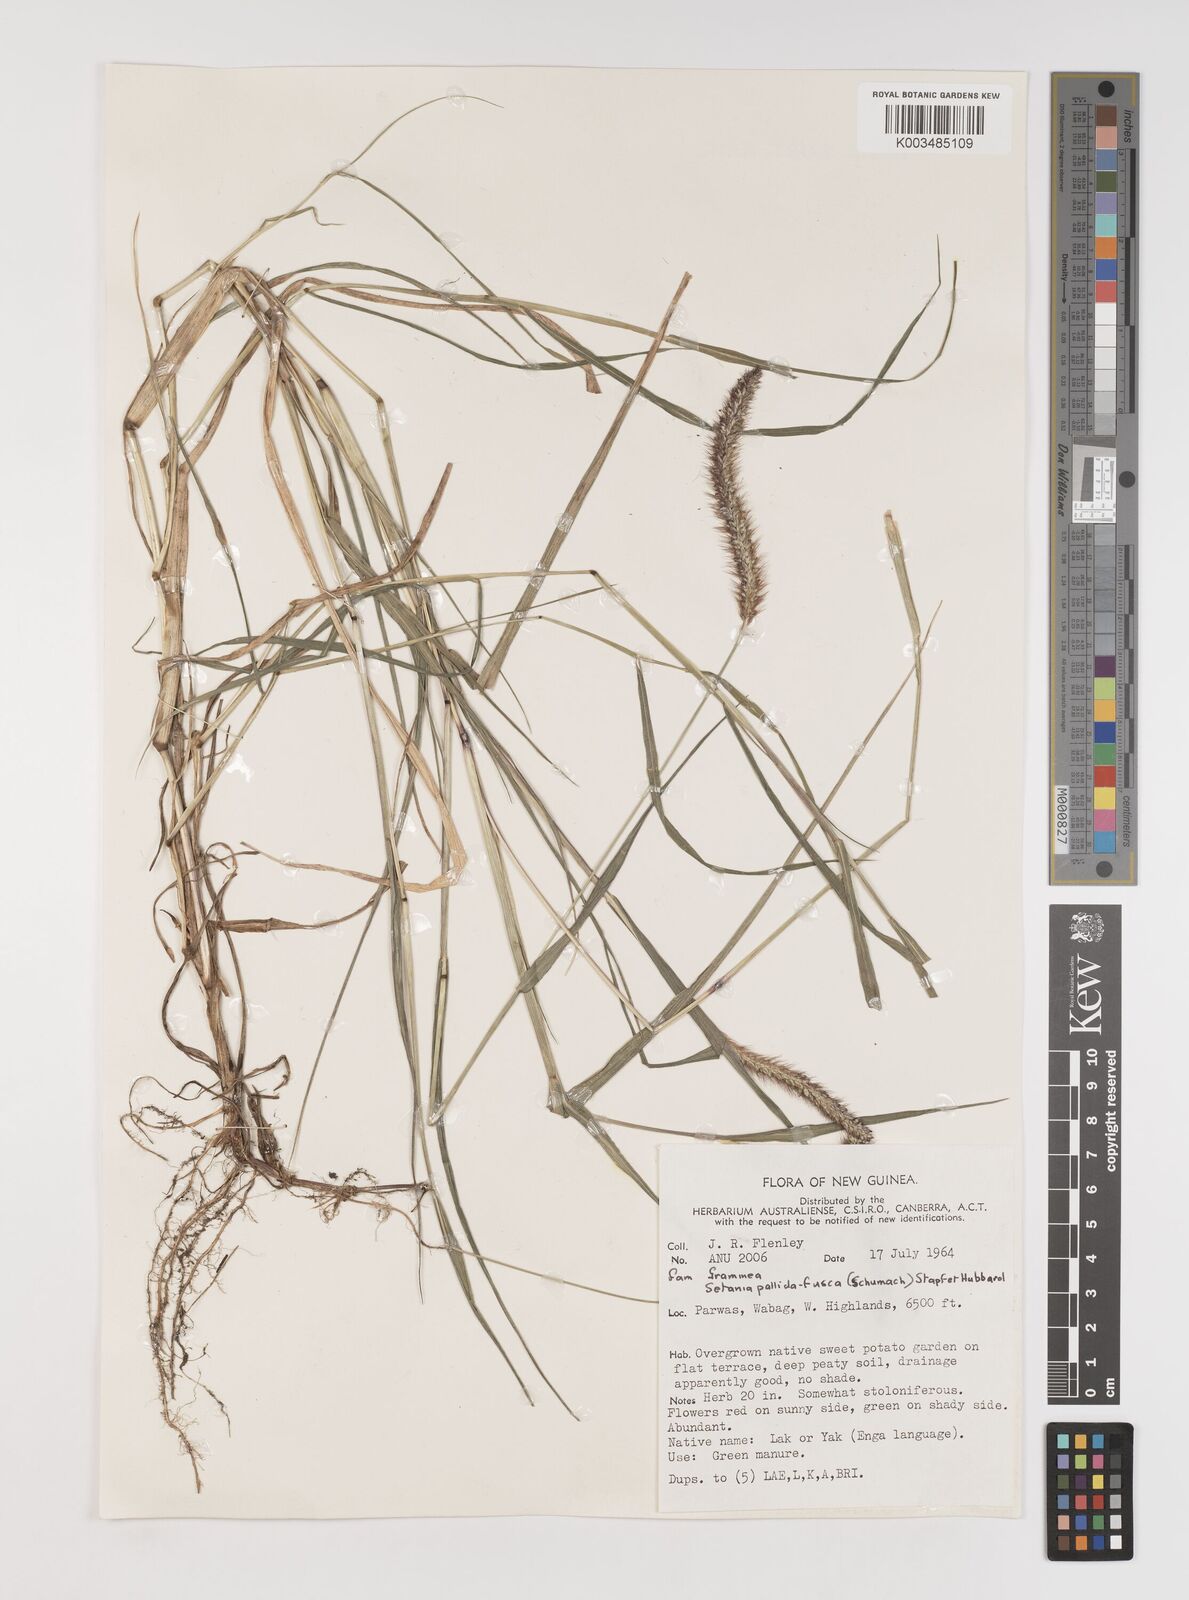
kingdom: Plantae
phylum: Tracheophyta
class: Liliopsida
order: Poales
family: Poaceae
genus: Setaria
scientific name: Setaria parviflora
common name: Knotroot bristle-grass
